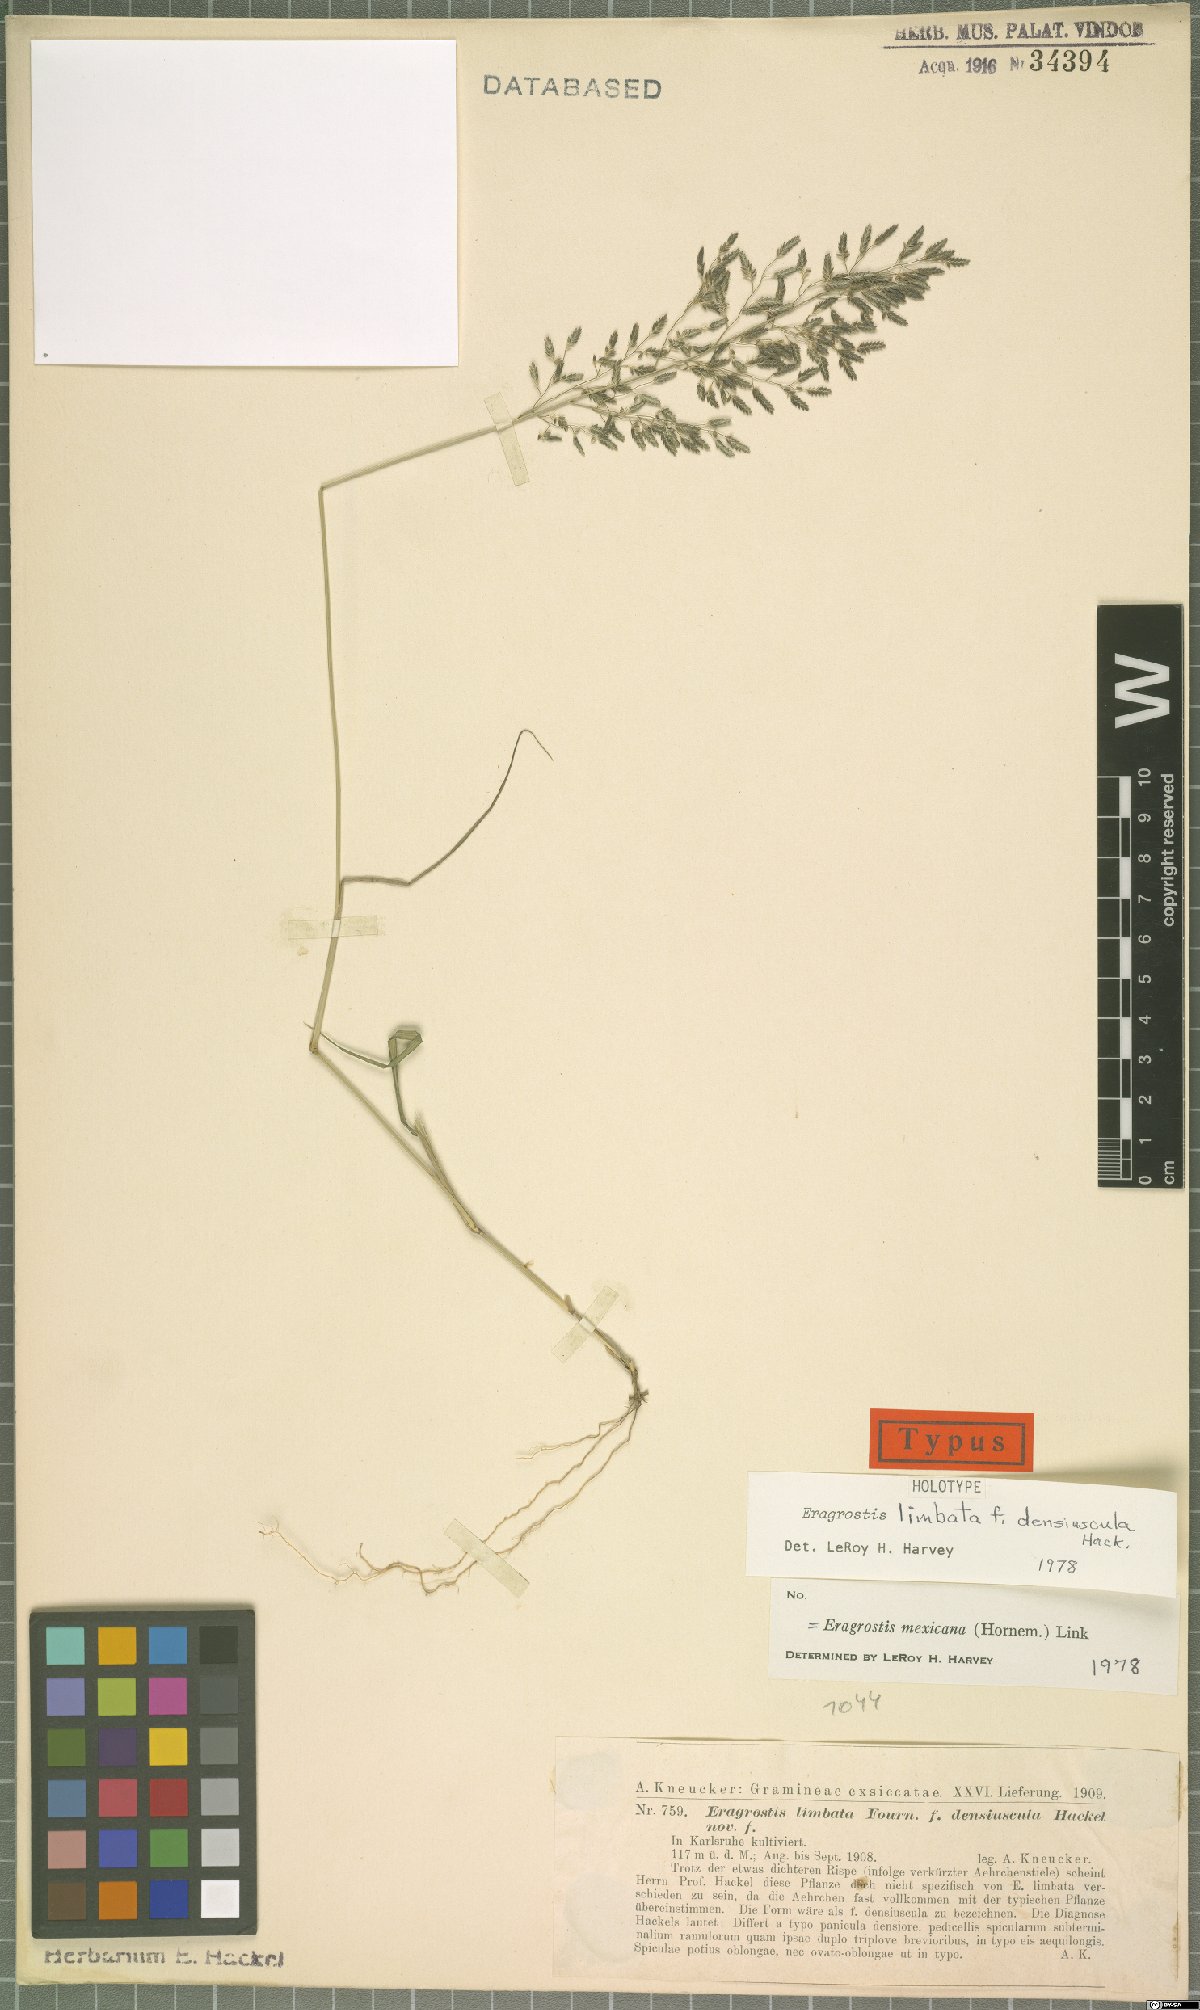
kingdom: Plantae
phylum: Tracheophyta
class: Liliopsida
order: Poales
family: Poaceae
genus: Eragrostis
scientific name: Eragrostis mexicana
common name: Mexican love grass
